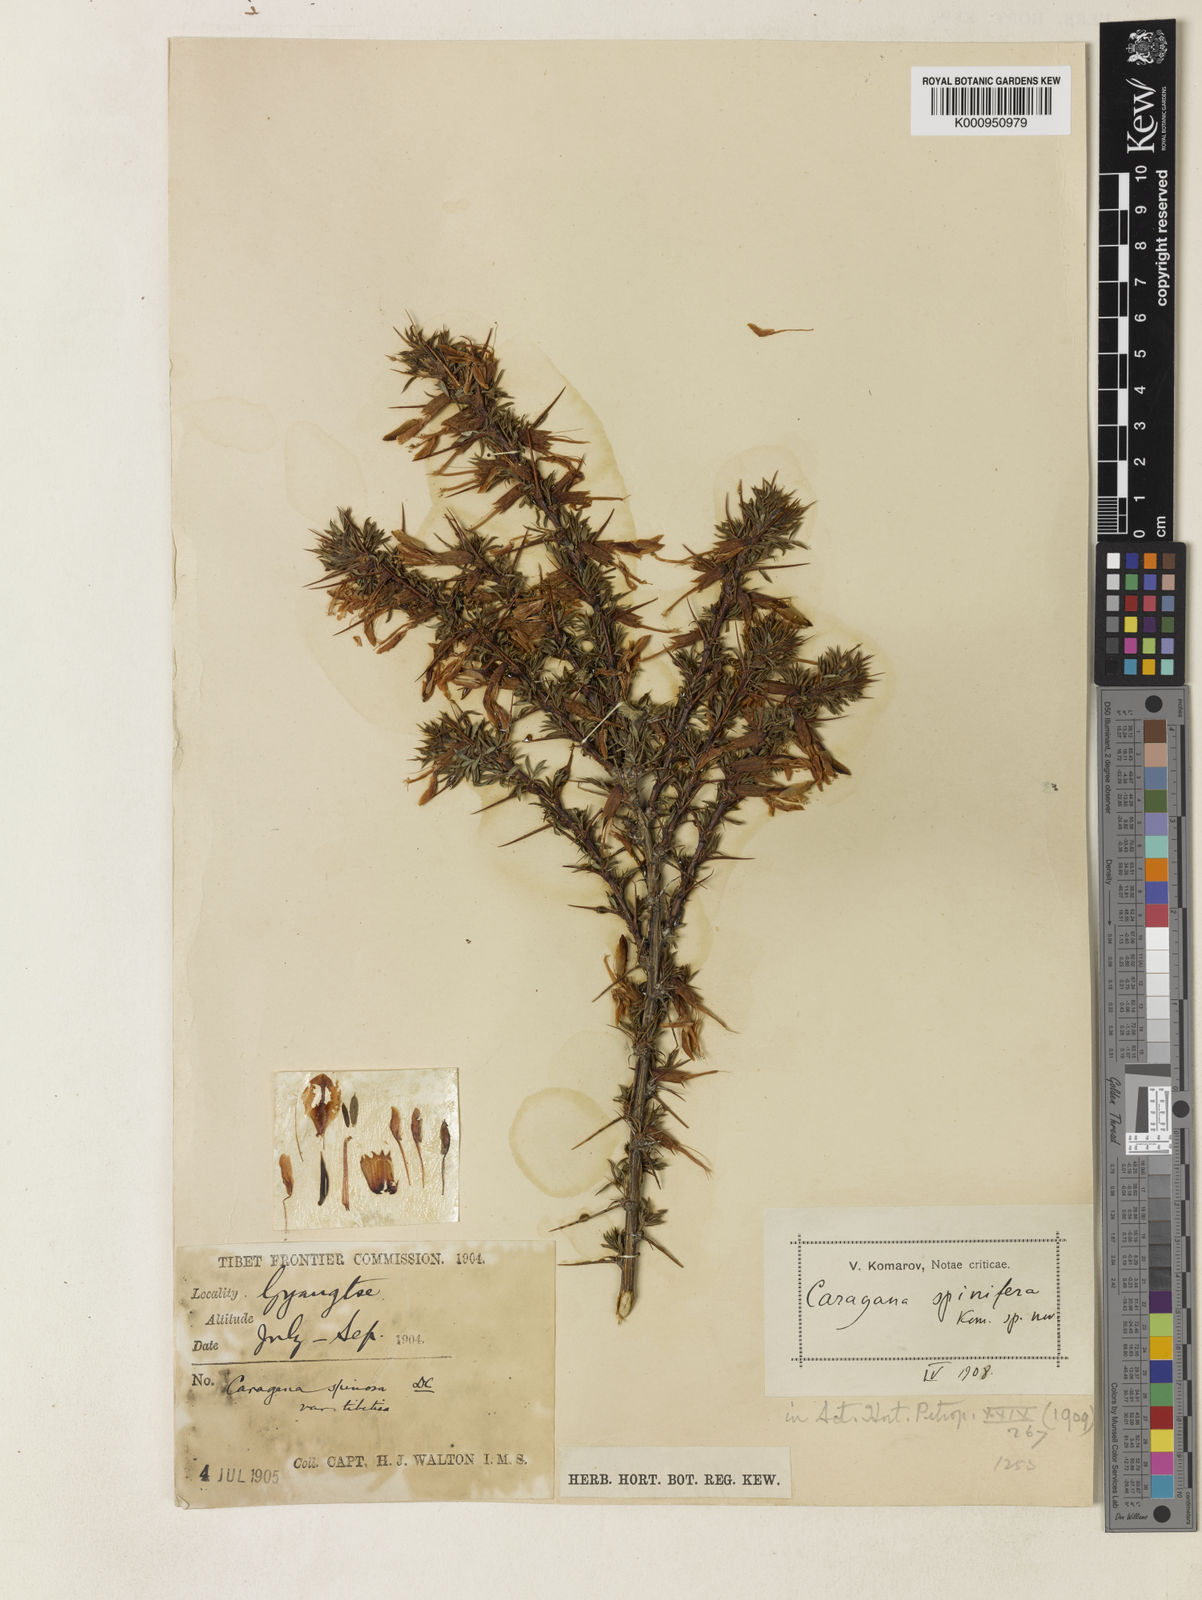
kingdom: Plantae
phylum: Tracheophyta
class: Magnoliopsida
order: Fabales
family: Fabaceae
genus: Caragana
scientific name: Caragana spinifera
